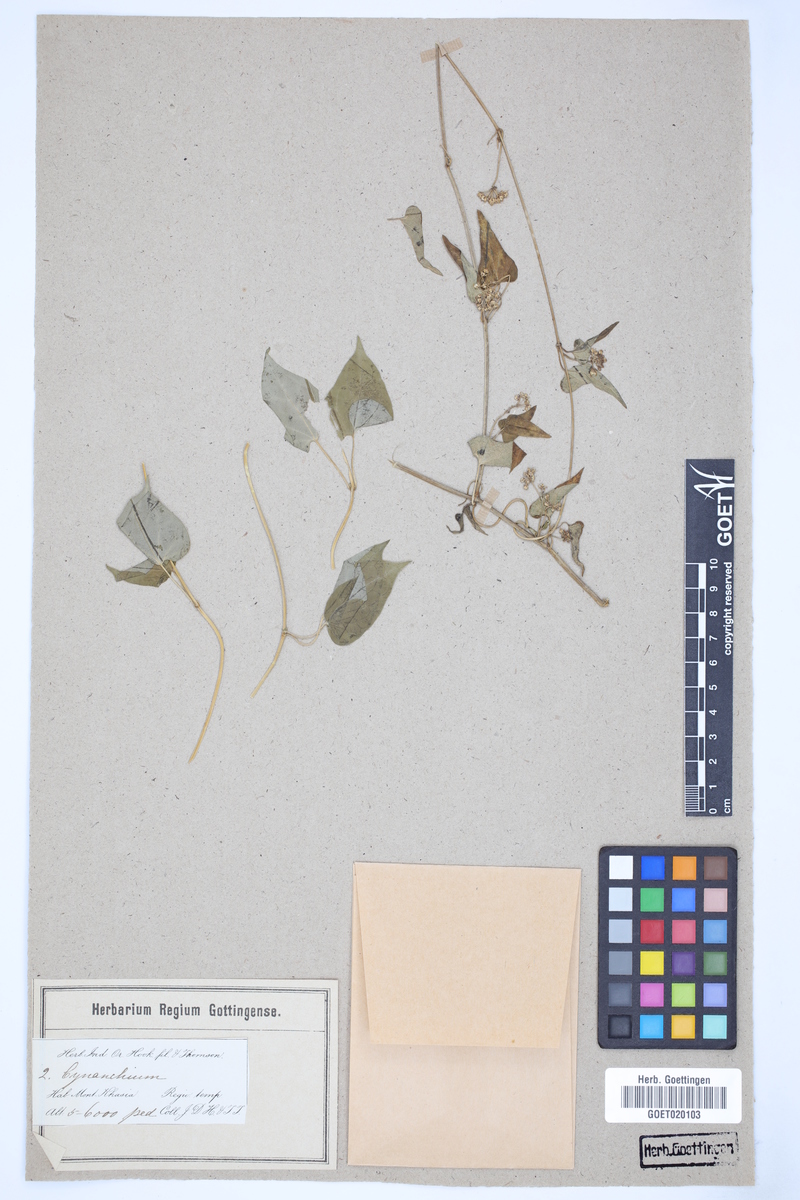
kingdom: Plantae
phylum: Tracheophyta
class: Magnoliopsida
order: Gentianales
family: Apocynaceae
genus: Vincetoxicum
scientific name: Vincetoxicum otophyllum
